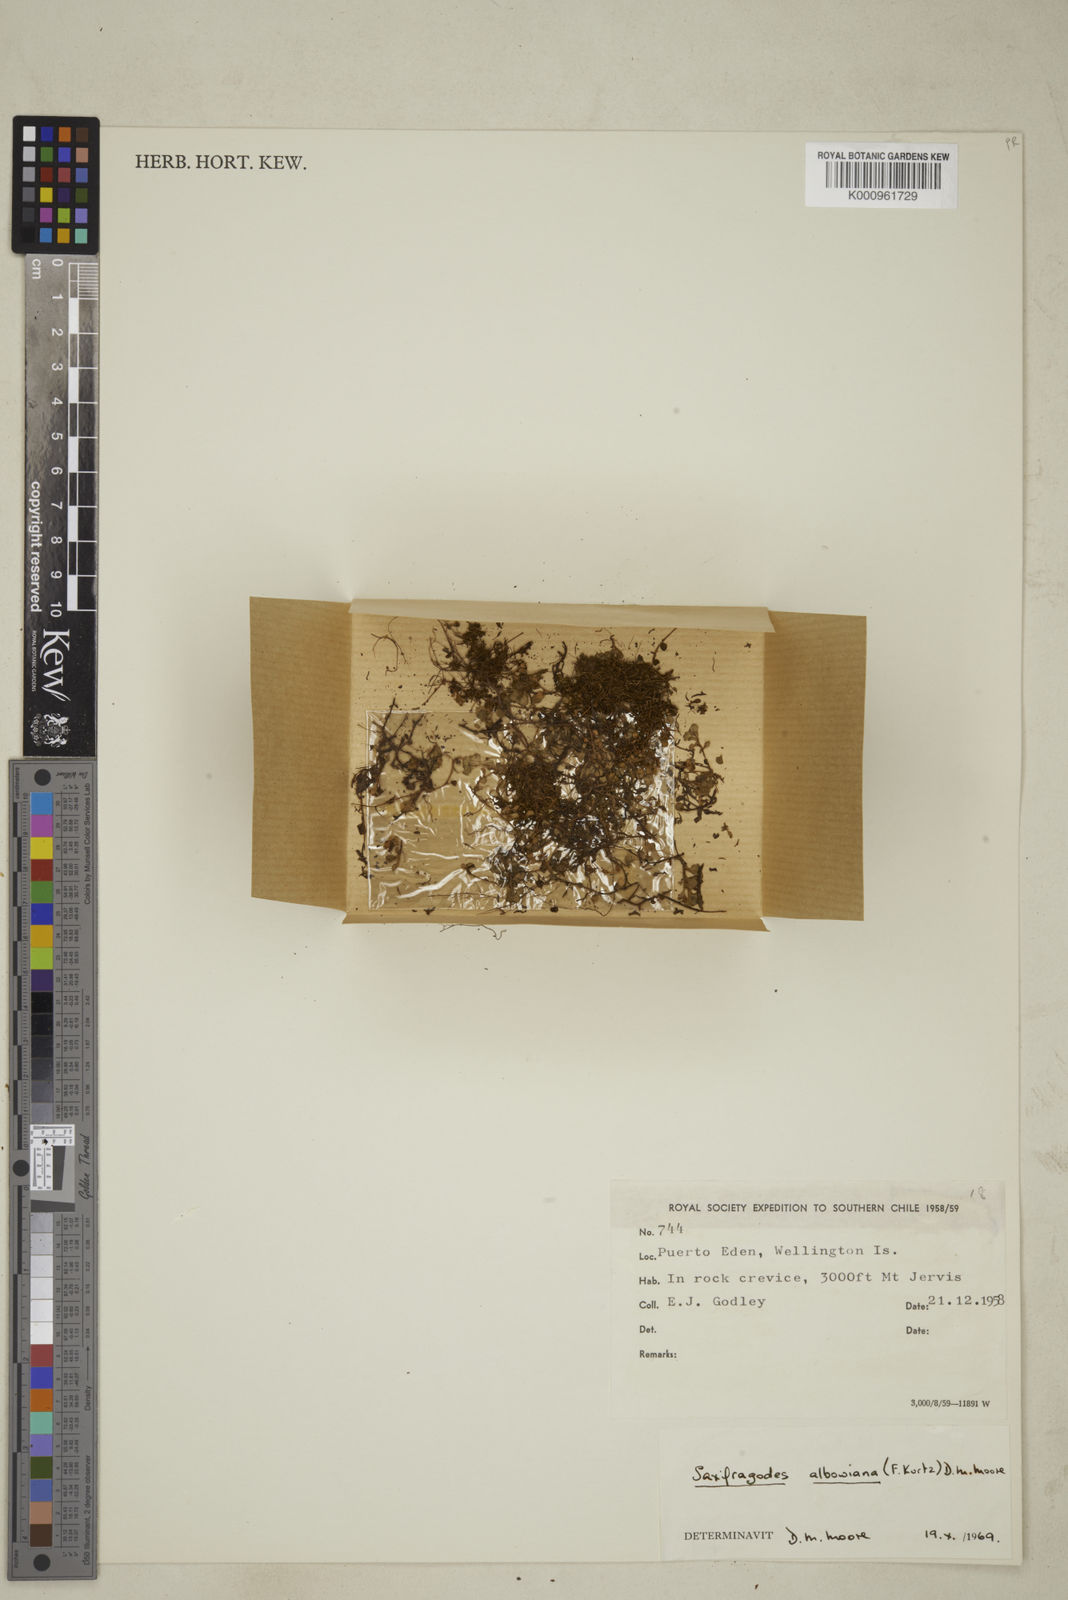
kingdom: Plantae
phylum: Tracheophyta
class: Magnoliopsida
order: Saxifragales
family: Saxifragaceae
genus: Saxifragodes
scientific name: Saxifragodes albowiana
